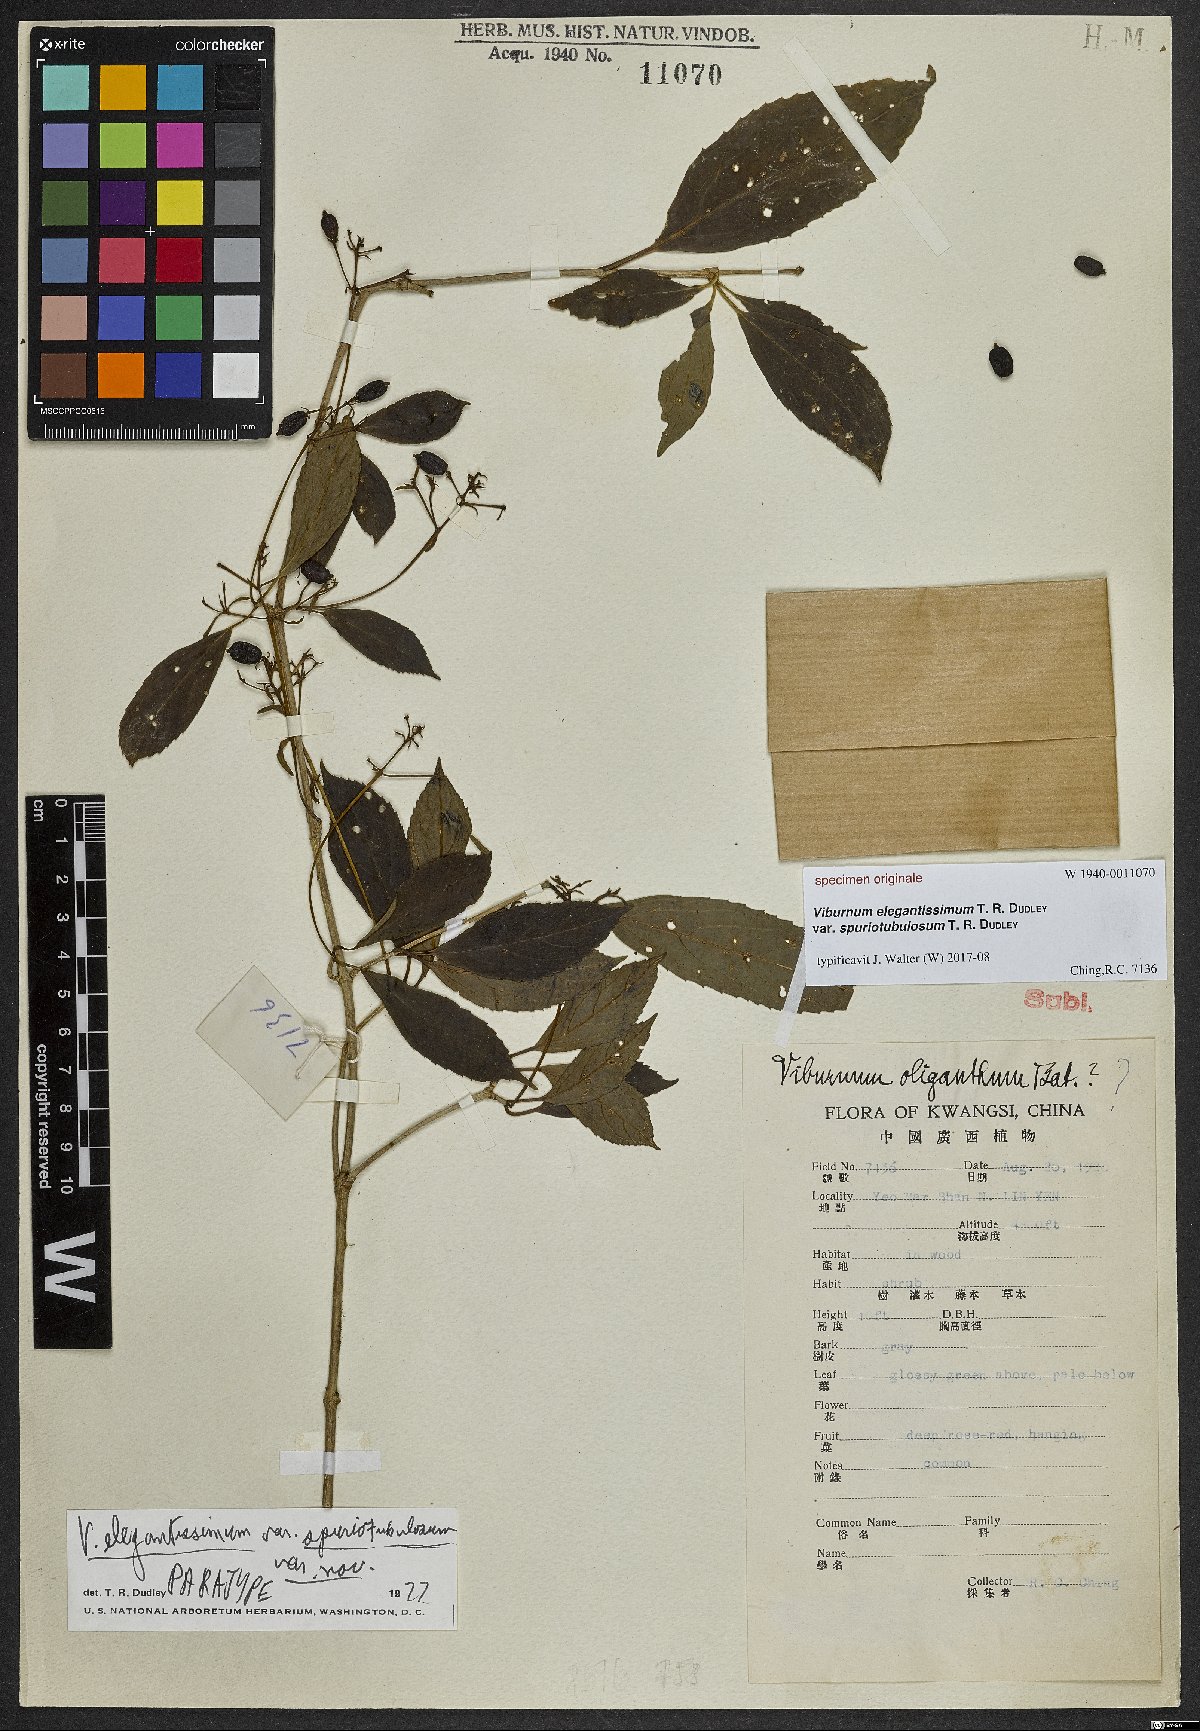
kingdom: Plantae
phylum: Tracheophyta
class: Magnoliopsida
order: Dipsacales
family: Viburnaceae
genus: Viburnum
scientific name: Viburnum
